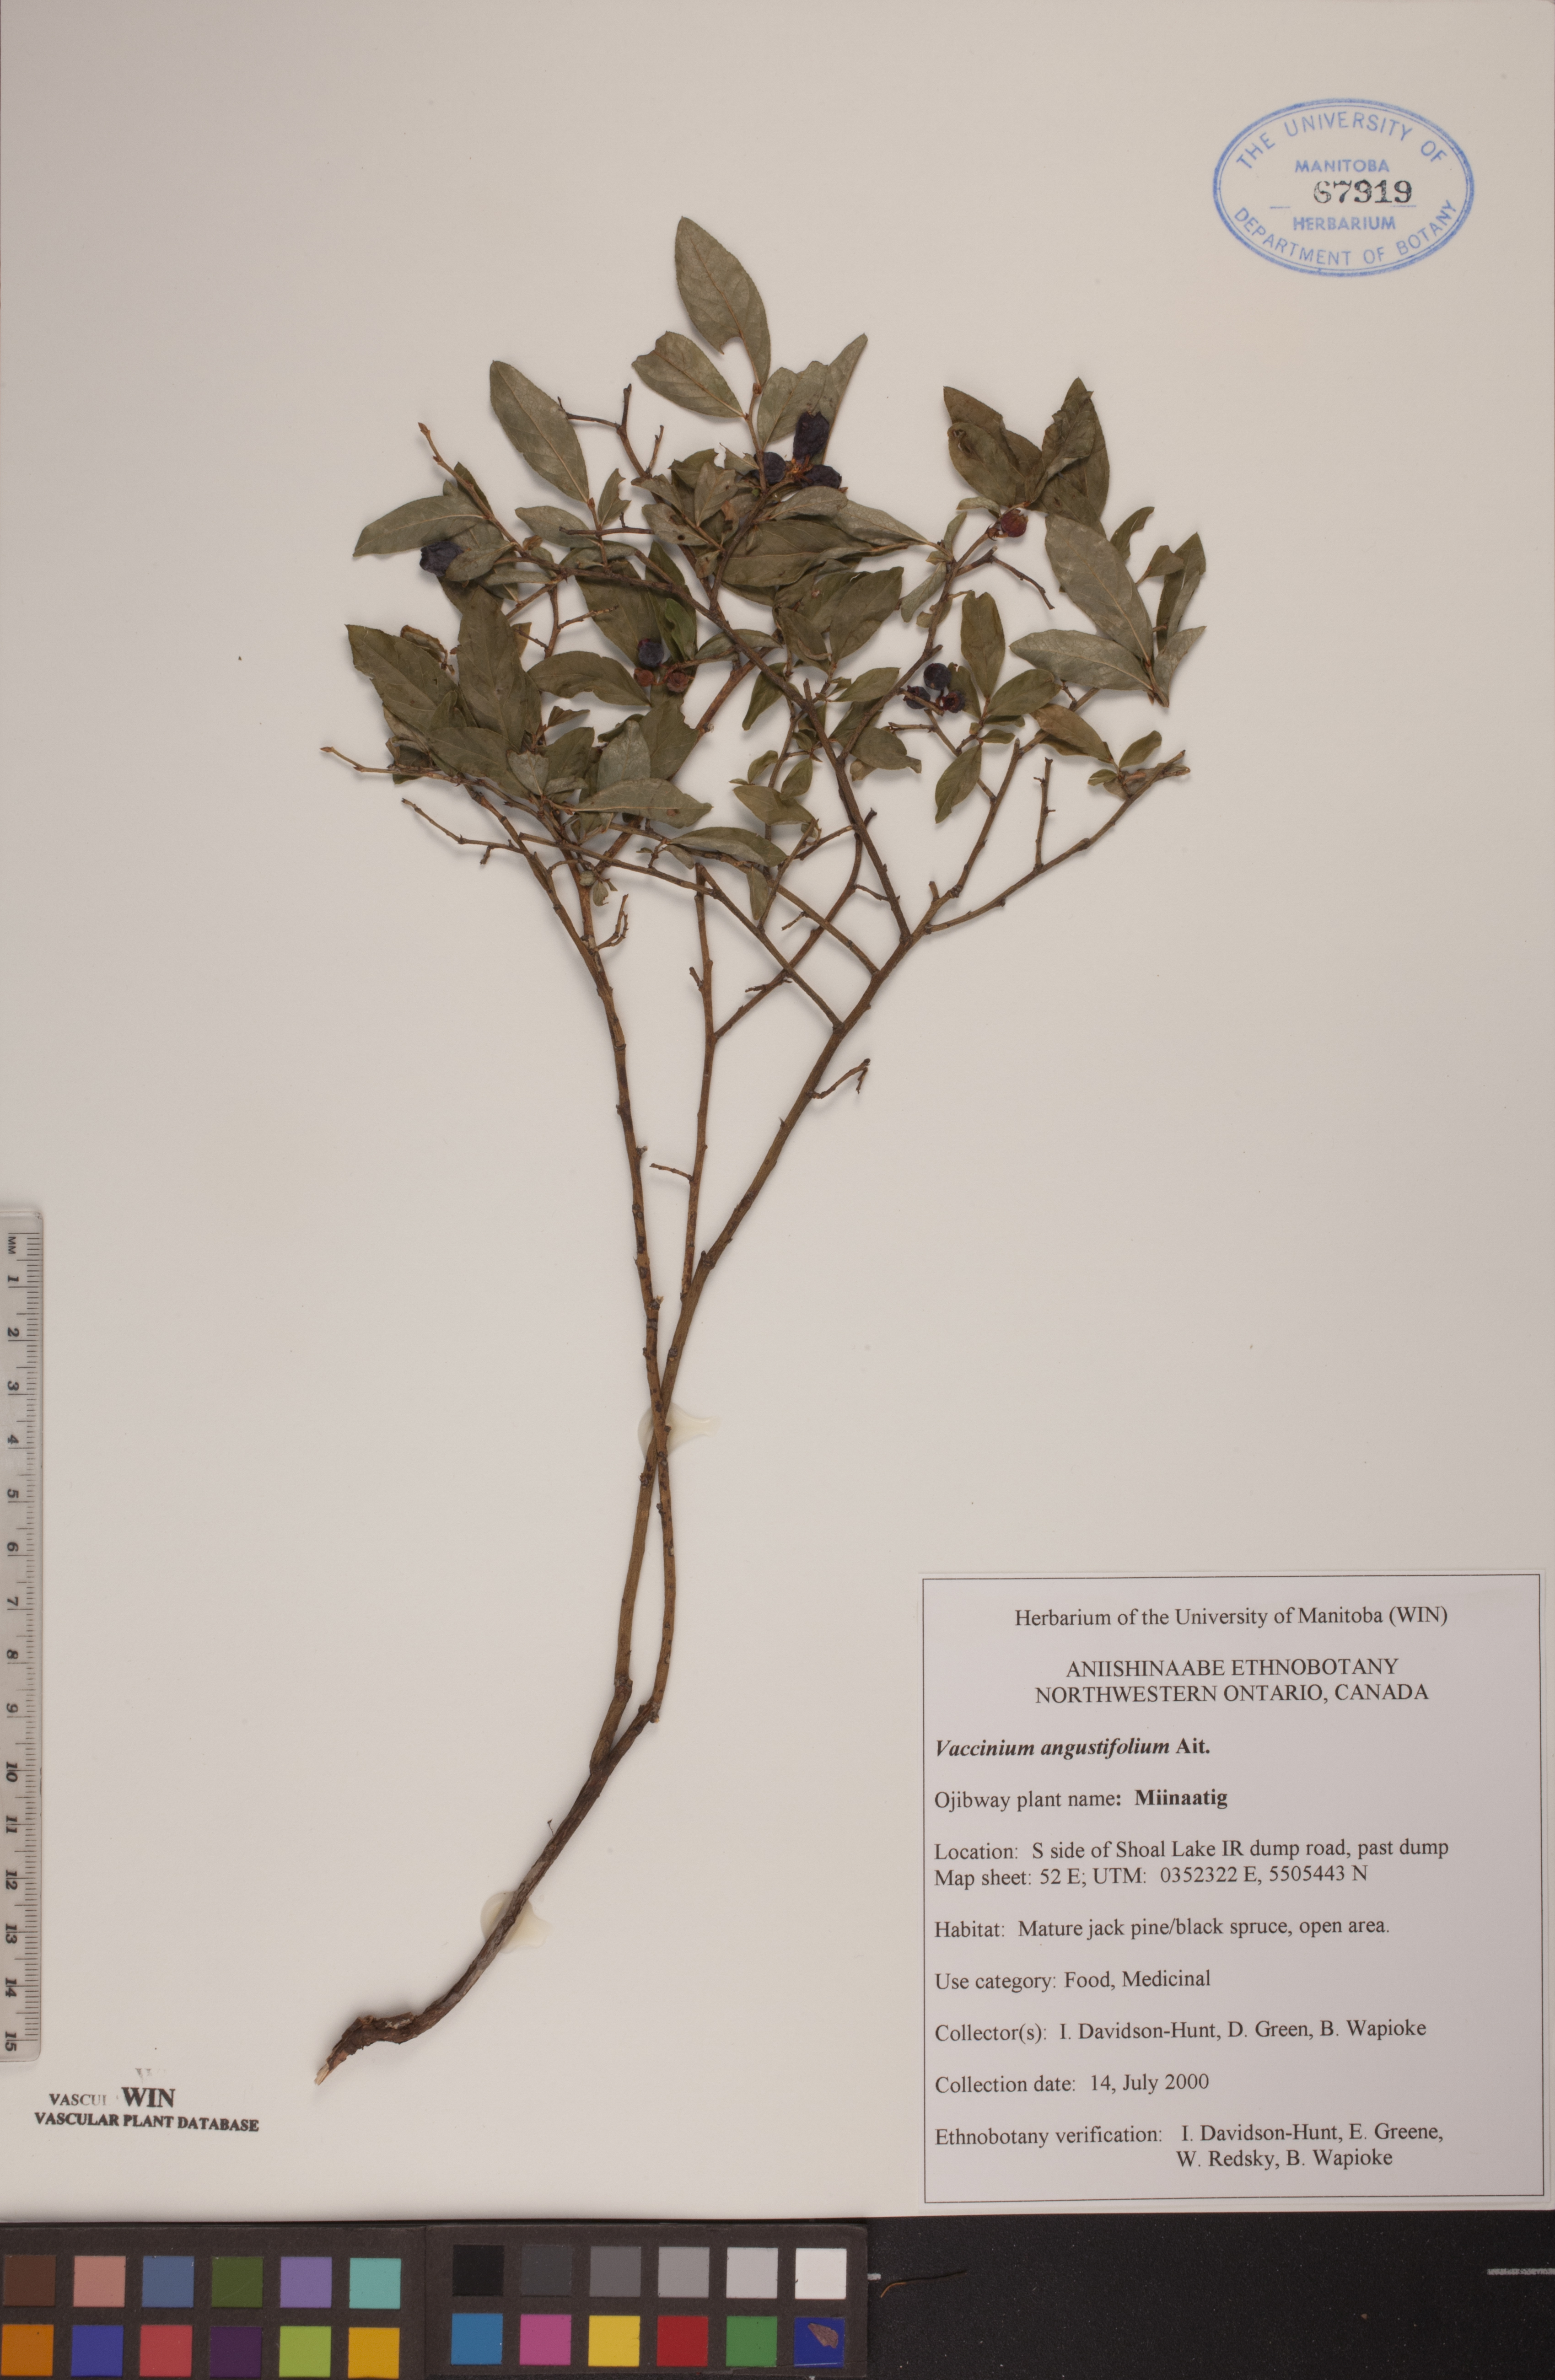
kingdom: Plantae
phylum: Tracheophyta
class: Magnoliopsida
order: Ericales
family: Ericaceae
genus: Vaccinium
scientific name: Vaccinium angustifolium
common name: Early lowbush blueberry
